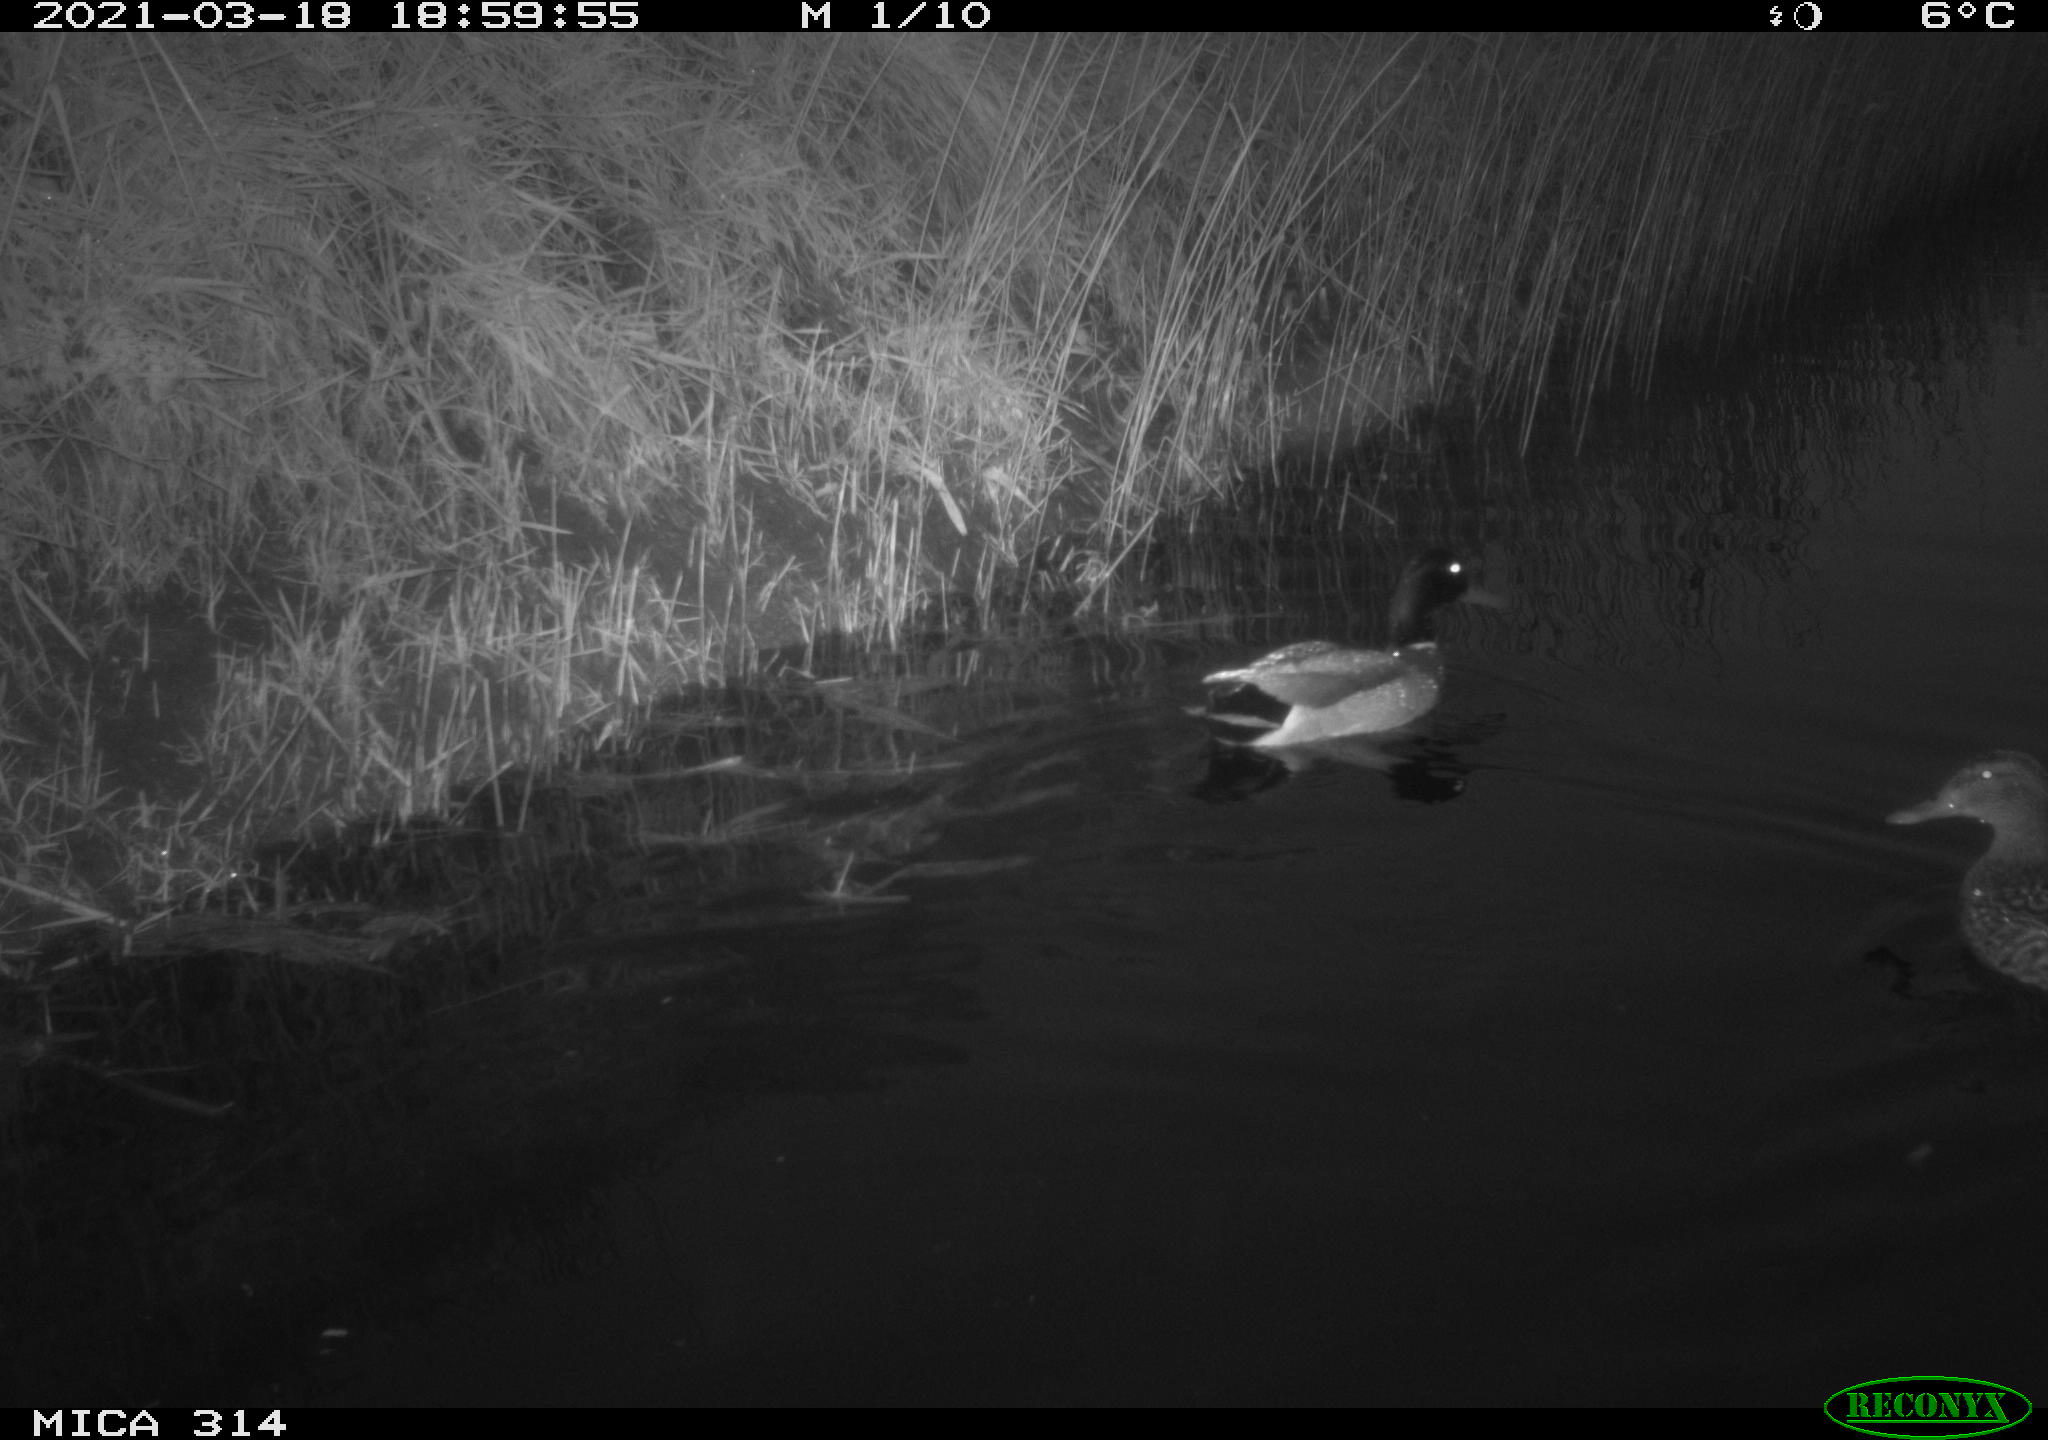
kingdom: Animalia
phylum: Chordata
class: Aves
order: Anseriformes
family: Anatidae
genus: Anas
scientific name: Anas platyrhynchos
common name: Mallard
